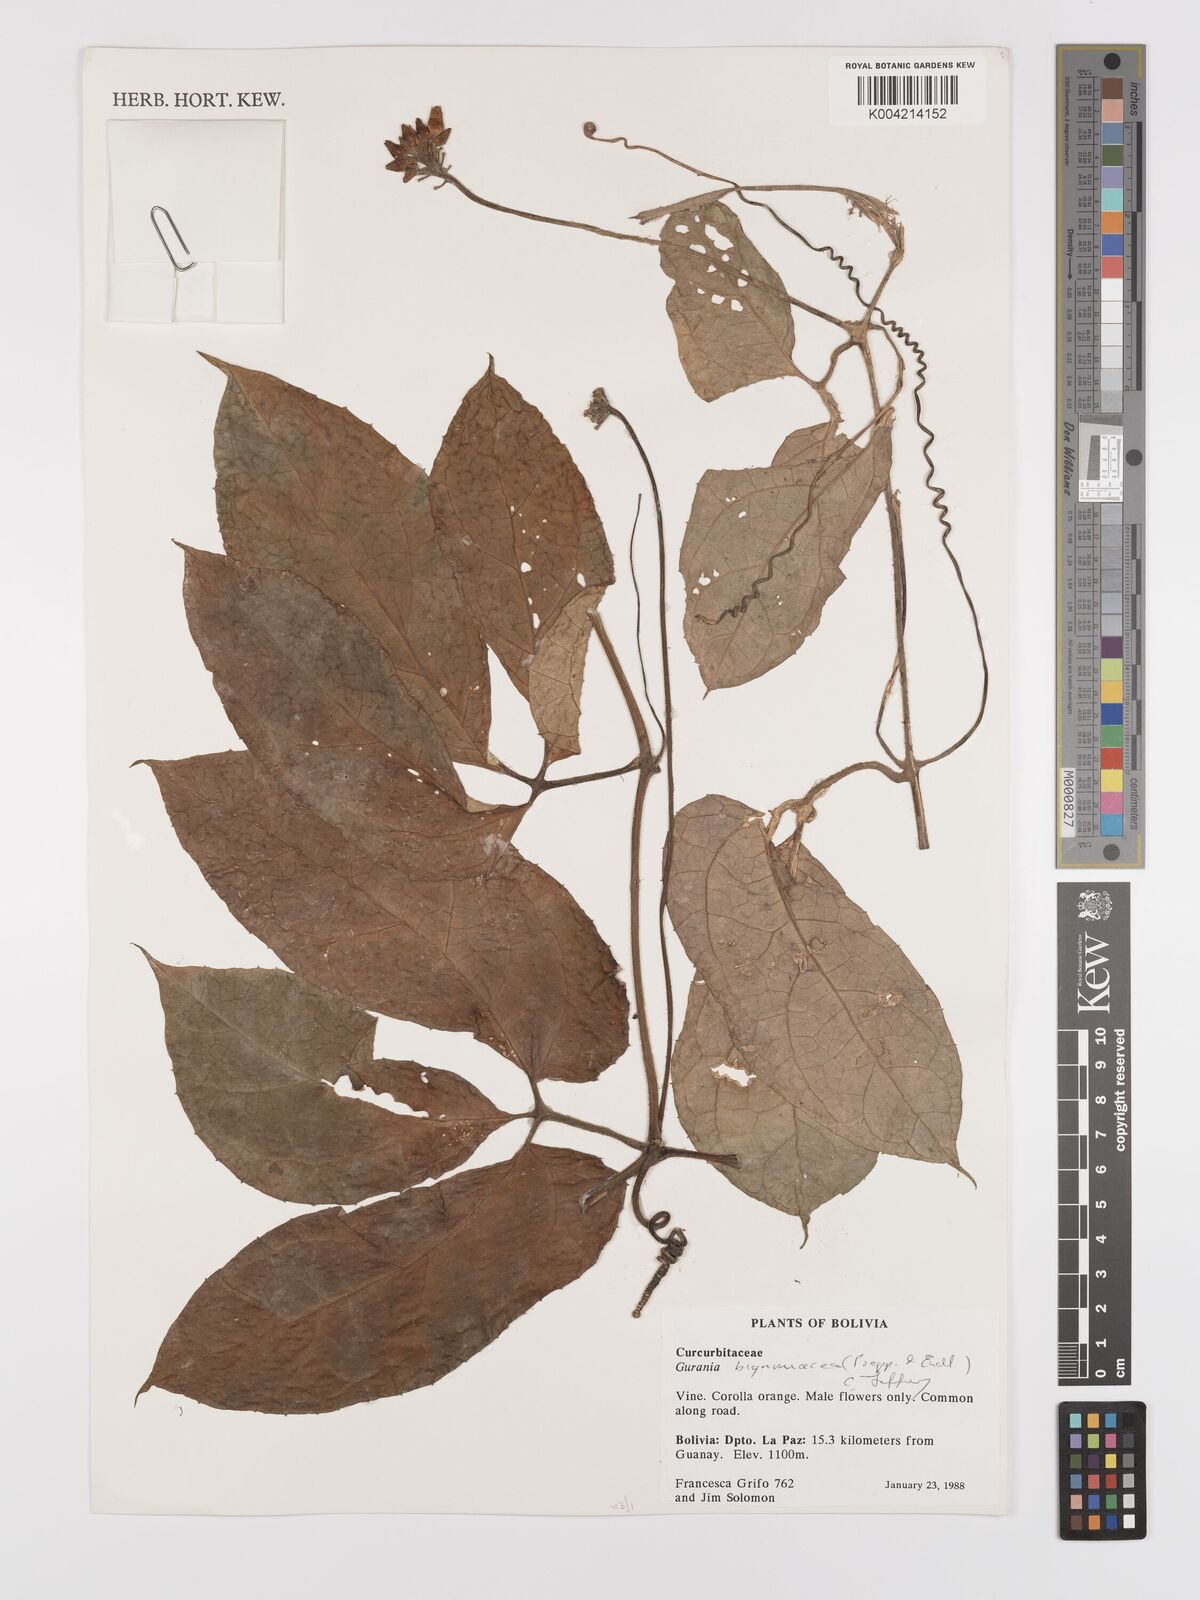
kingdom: Plantae
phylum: Tracheophyta
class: Magnoliopsida
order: Cucurbitales
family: Cucurbitaceae
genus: Gurania
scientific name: Gurania bignoniacea
